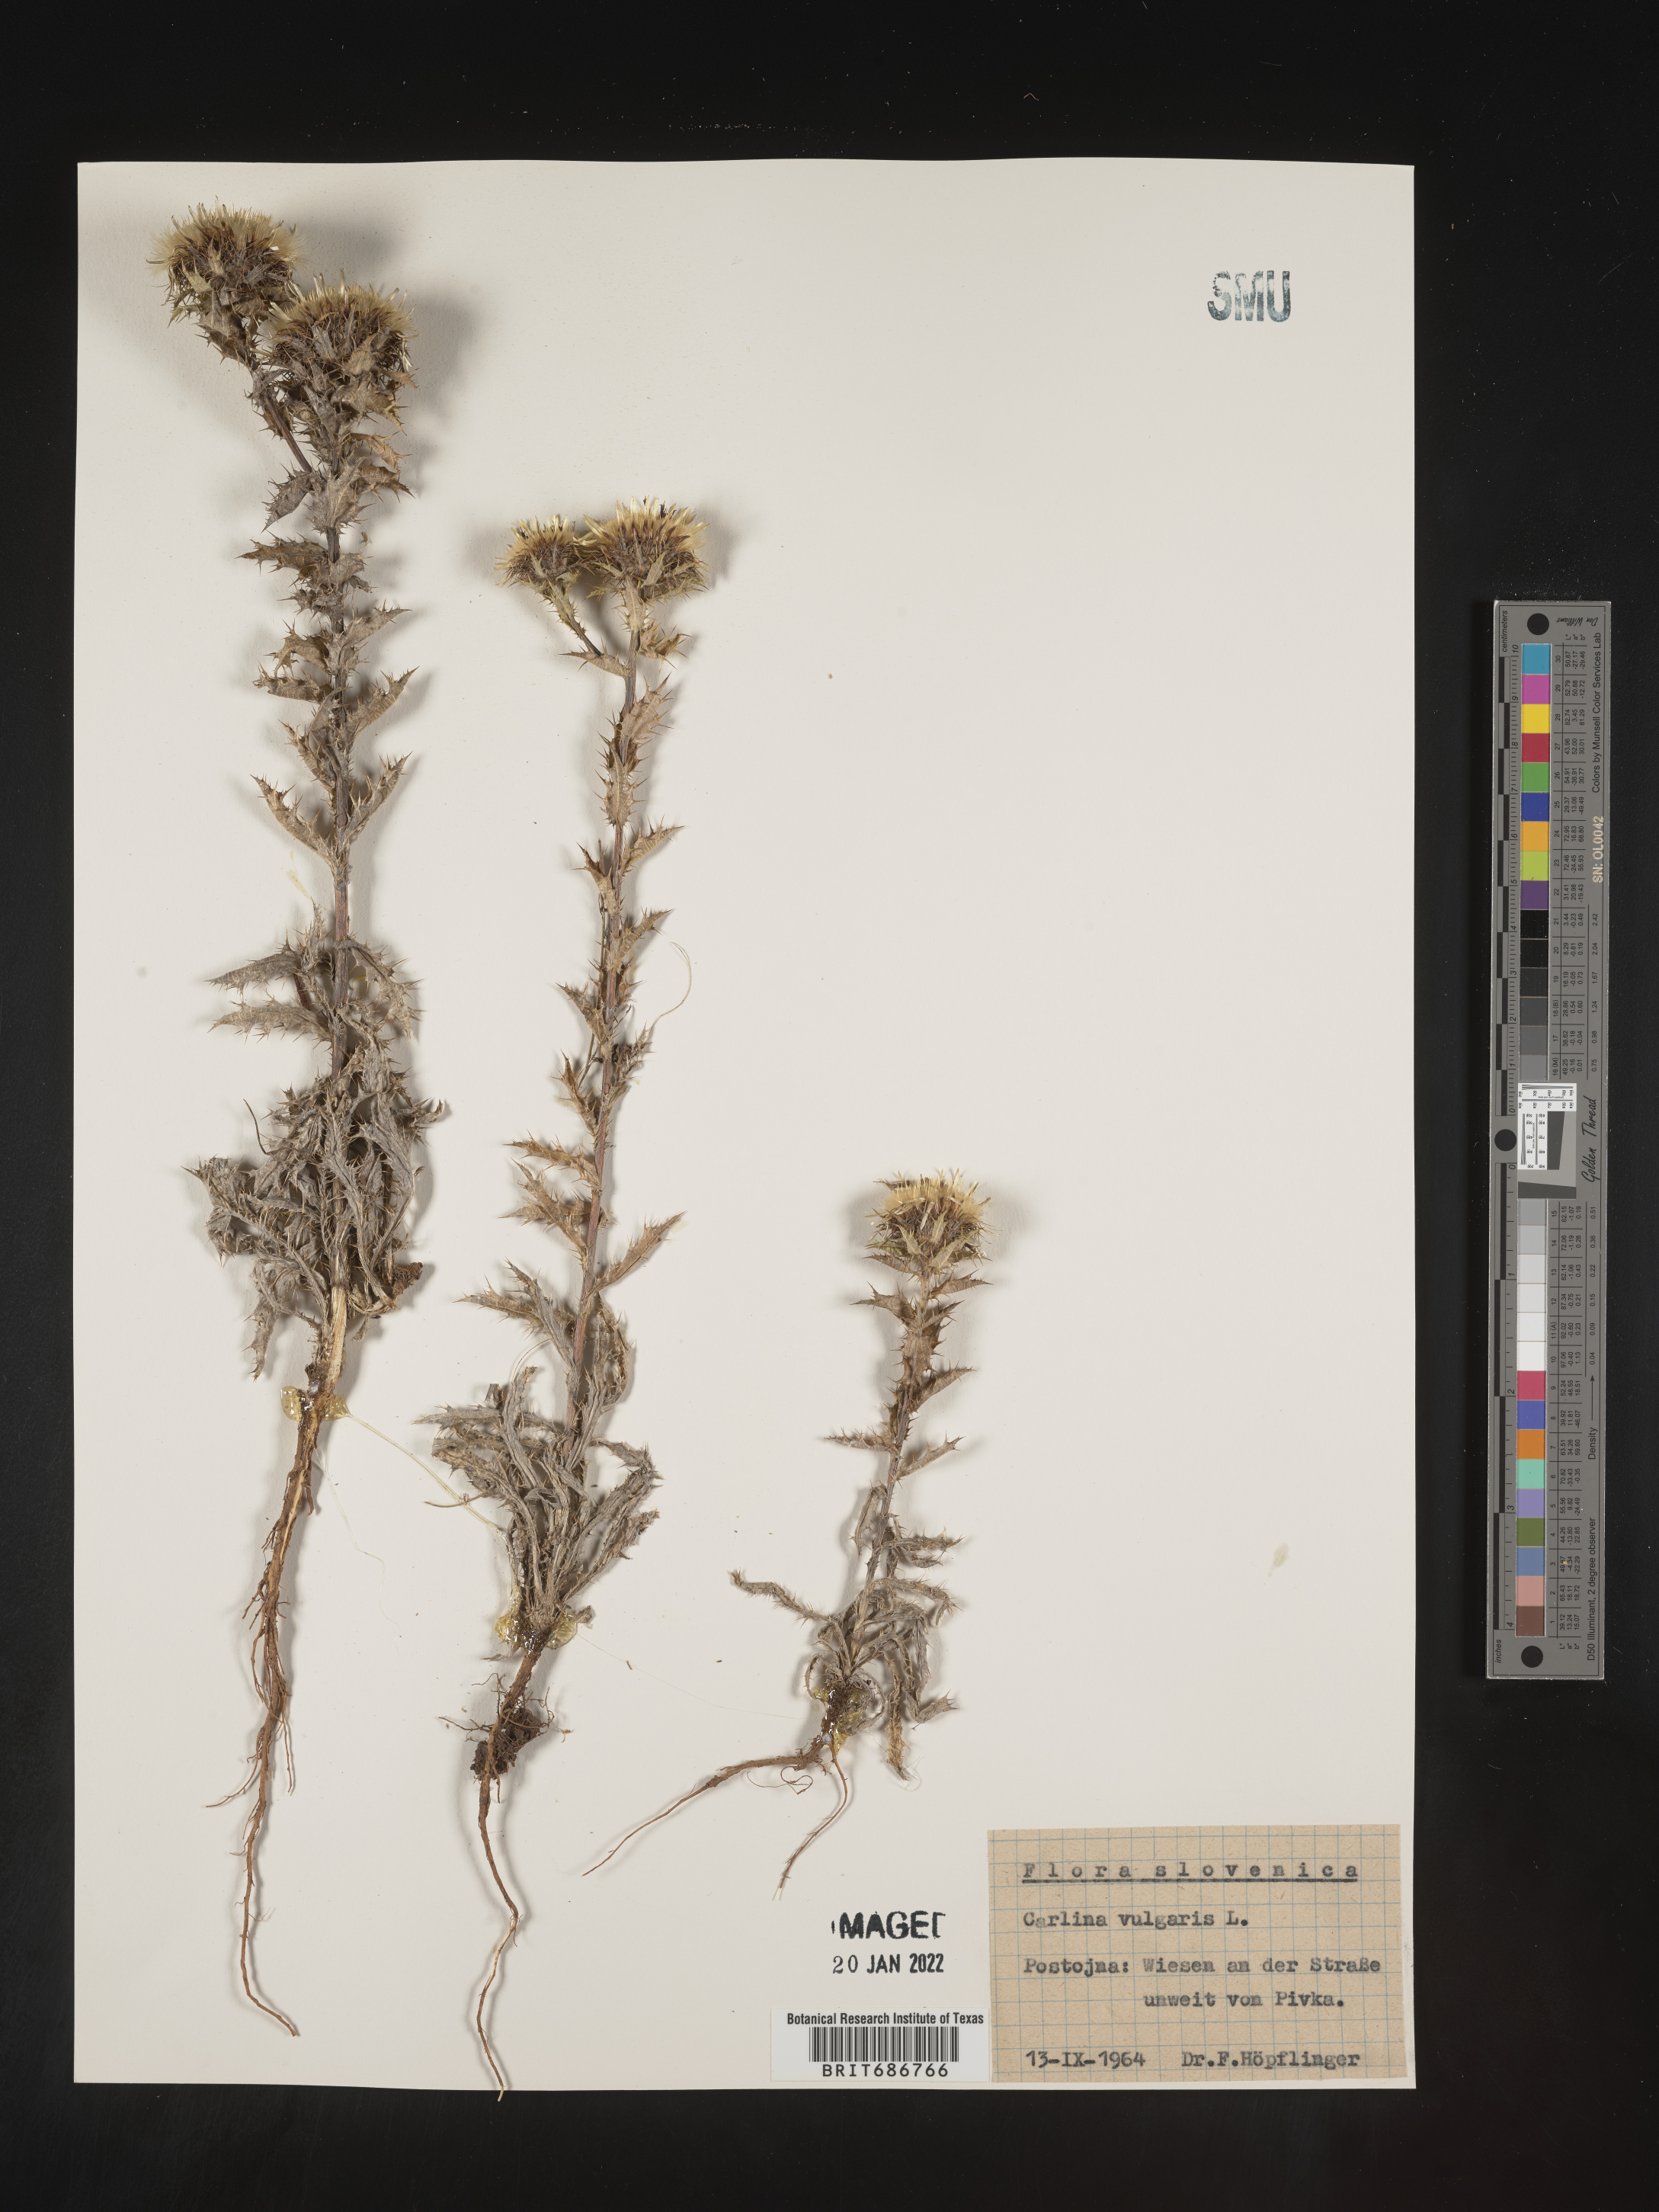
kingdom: Plantae
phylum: Tracheophyta
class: Magnoliopsida
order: Asterales
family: Asteraceae
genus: Carlina
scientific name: Carlina
